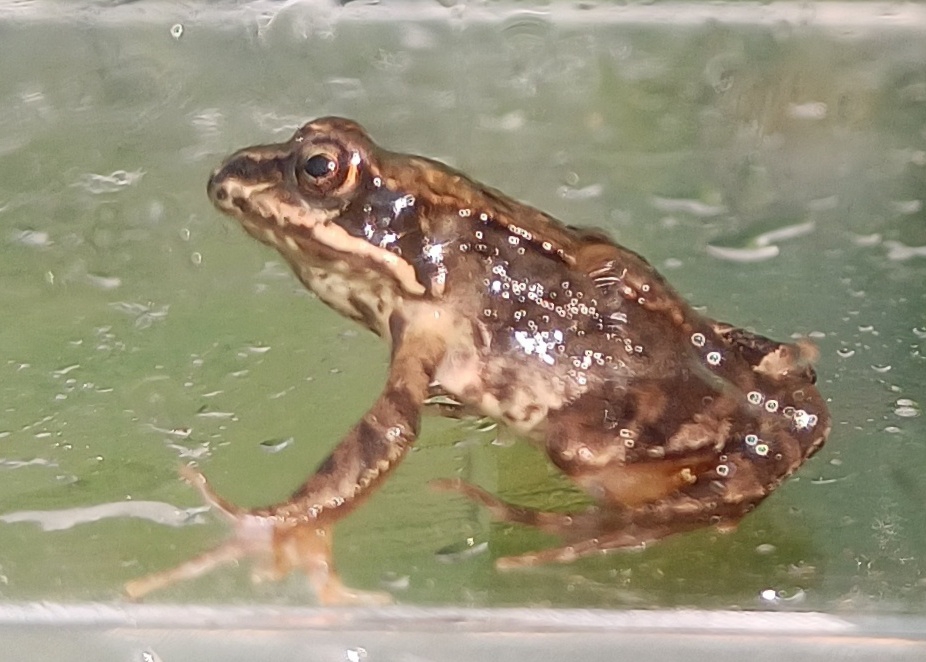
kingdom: Animalia
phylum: Chordata
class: Amphibia
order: Anura
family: Ranidae
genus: Rana
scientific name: Rana temporaria
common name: Butsnudet frø
